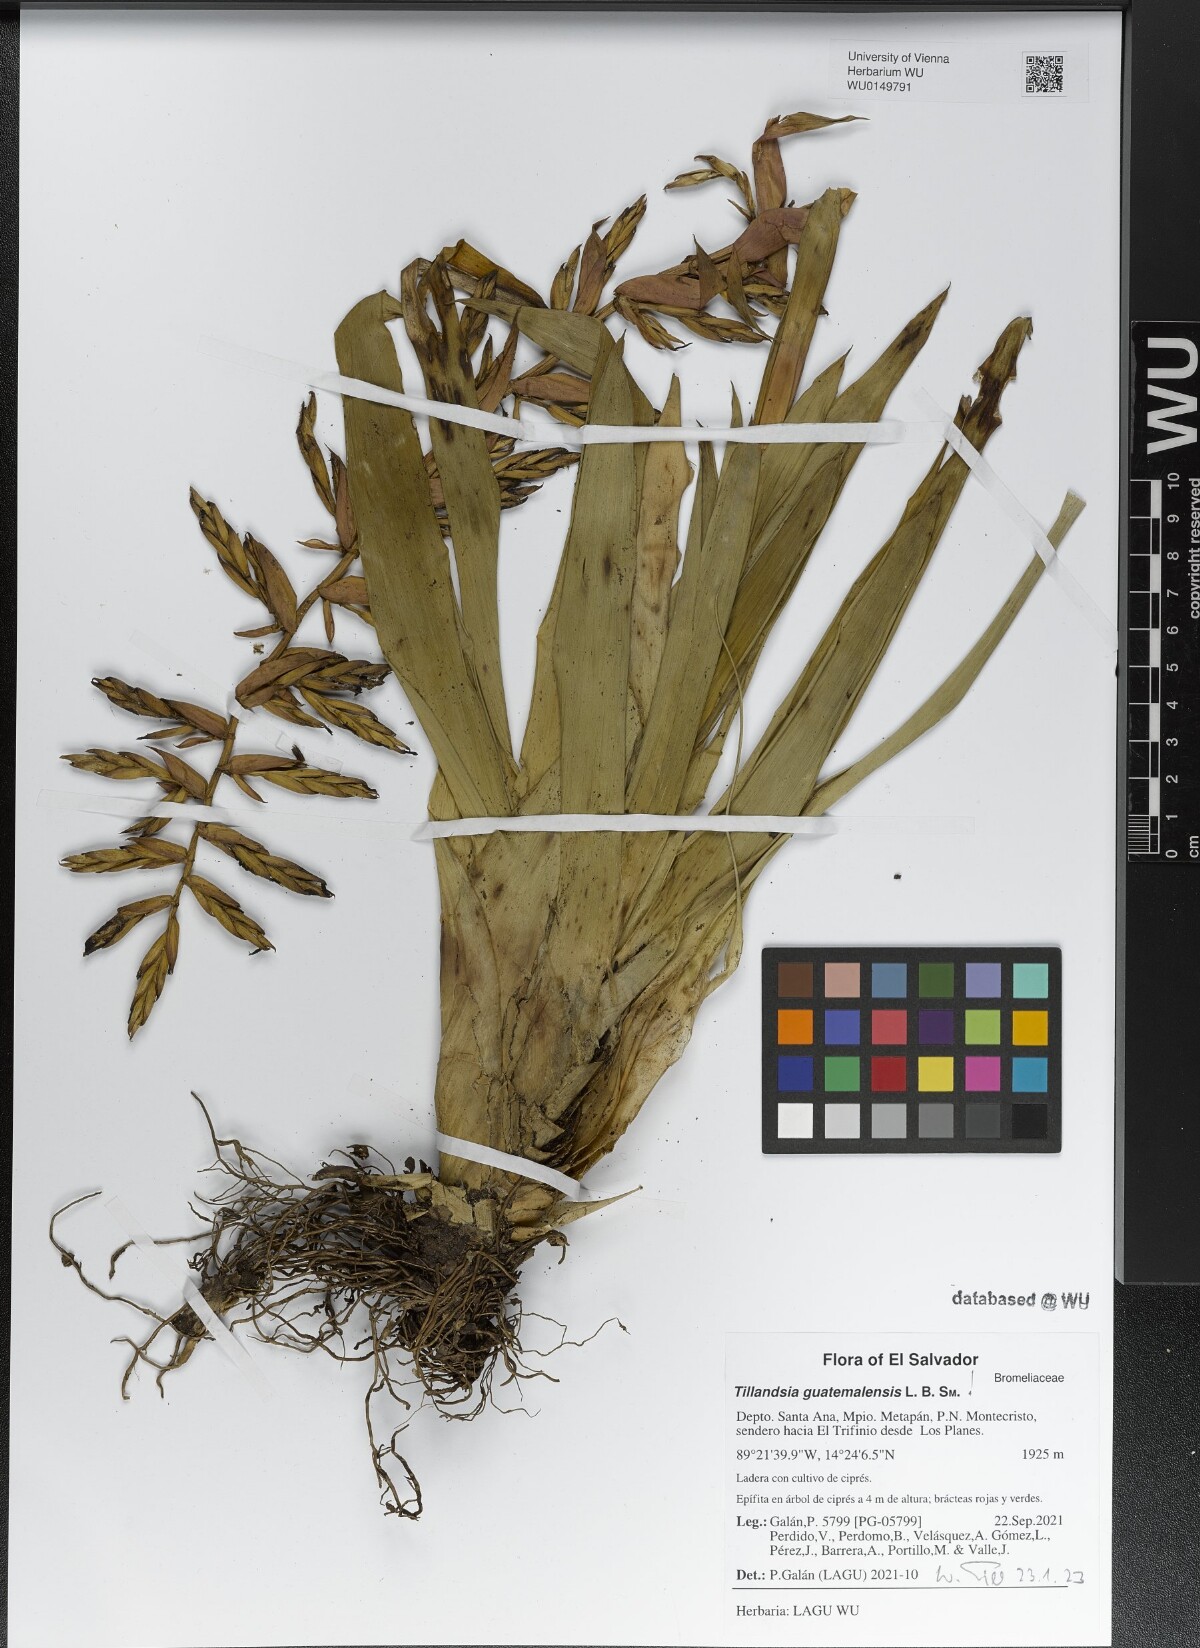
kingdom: Plantae
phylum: Tracheophyta
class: Liliopsida
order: Poales
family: Bromeliaceae
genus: Tillandsia
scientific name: Tillandsia guatemalensis
